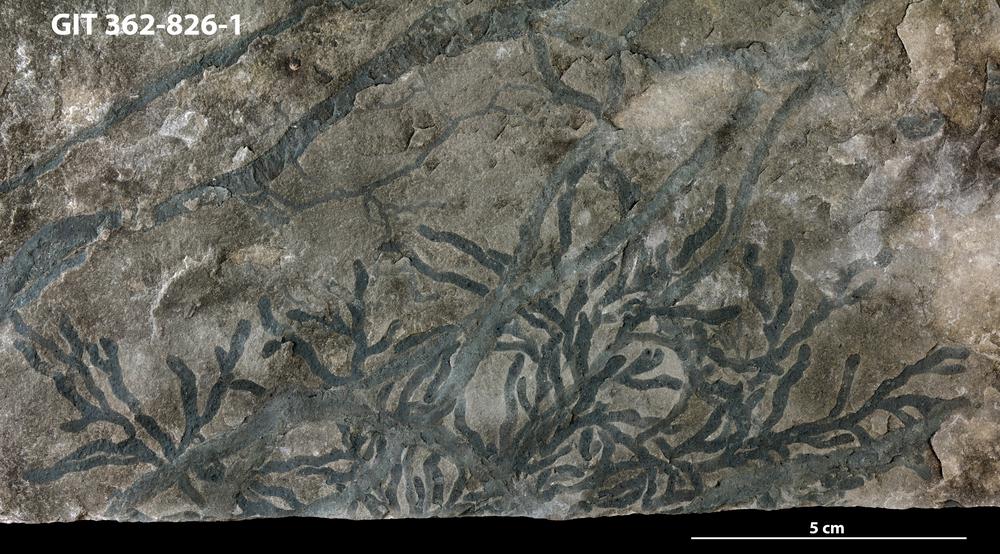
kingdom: Animalia
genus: Chondrites
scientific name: Chondrites
